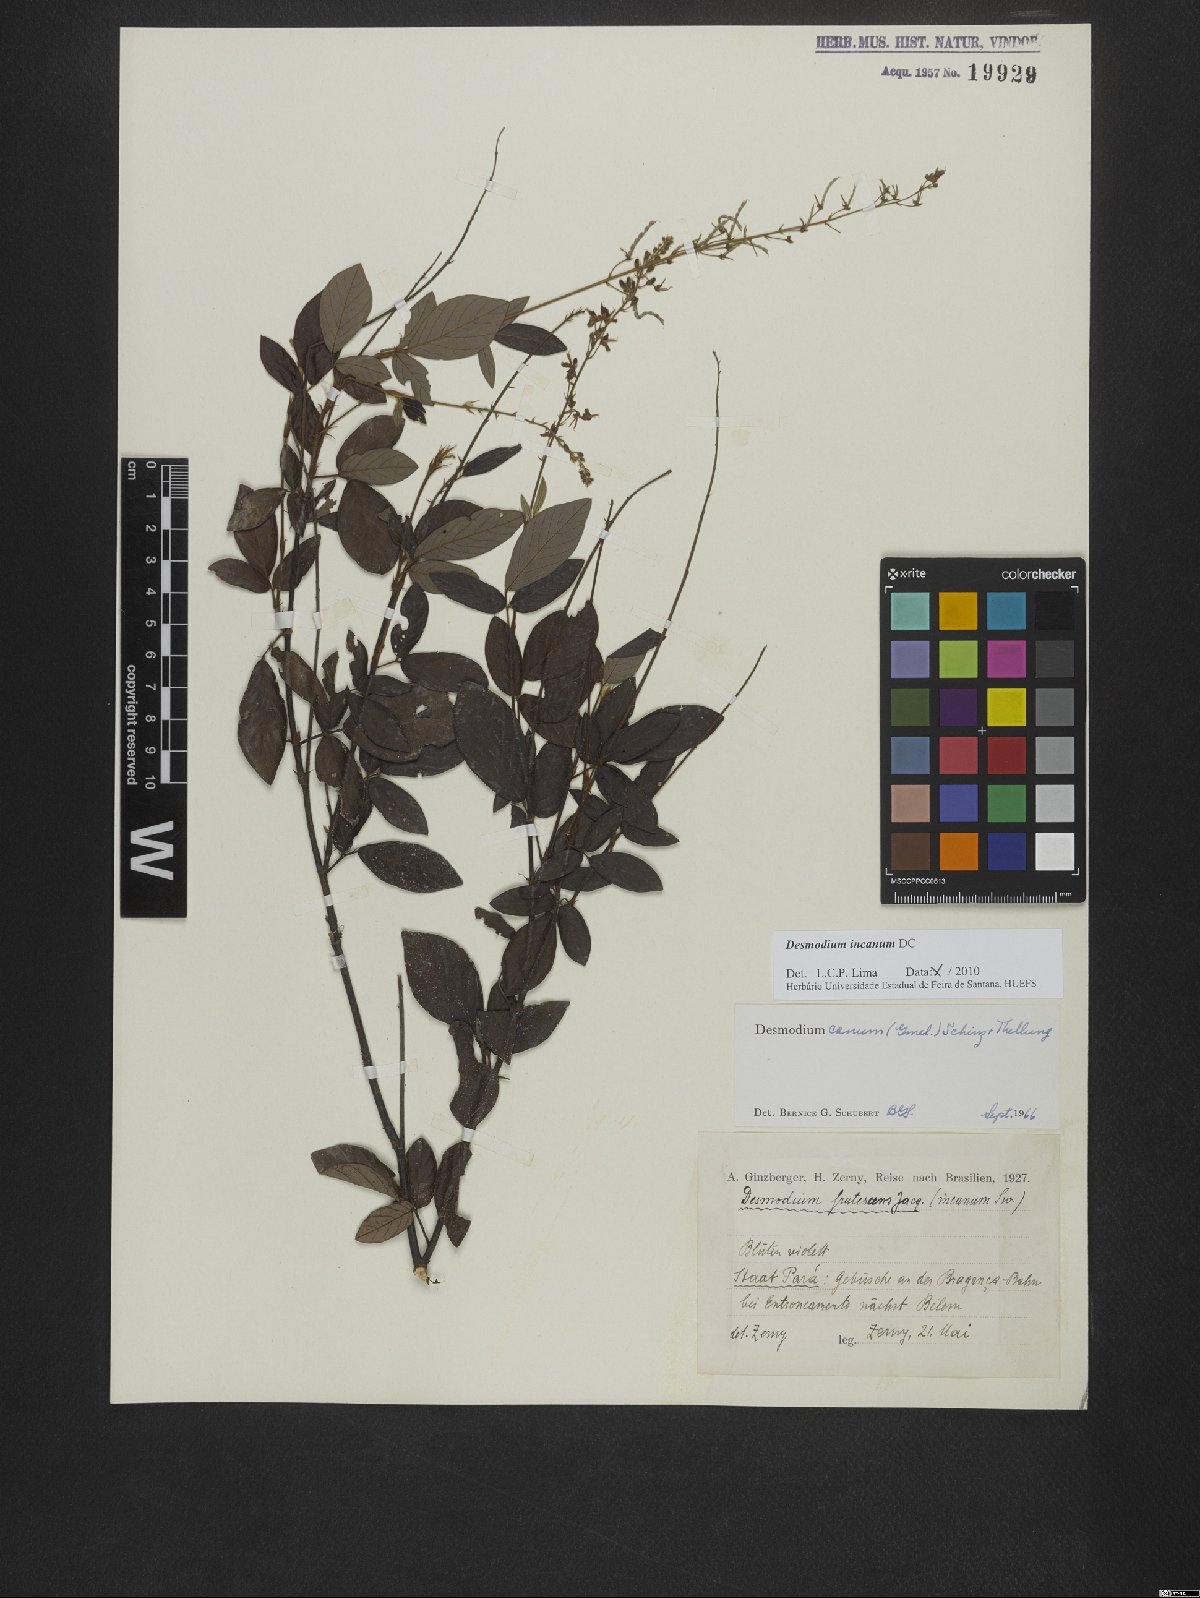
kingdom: Plantae
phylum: Tracheophyta
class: Magnoliopsida
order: Fabales
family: Fabaceae
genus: Desmodium
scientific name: Desmodium incanum
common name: Tickclover
